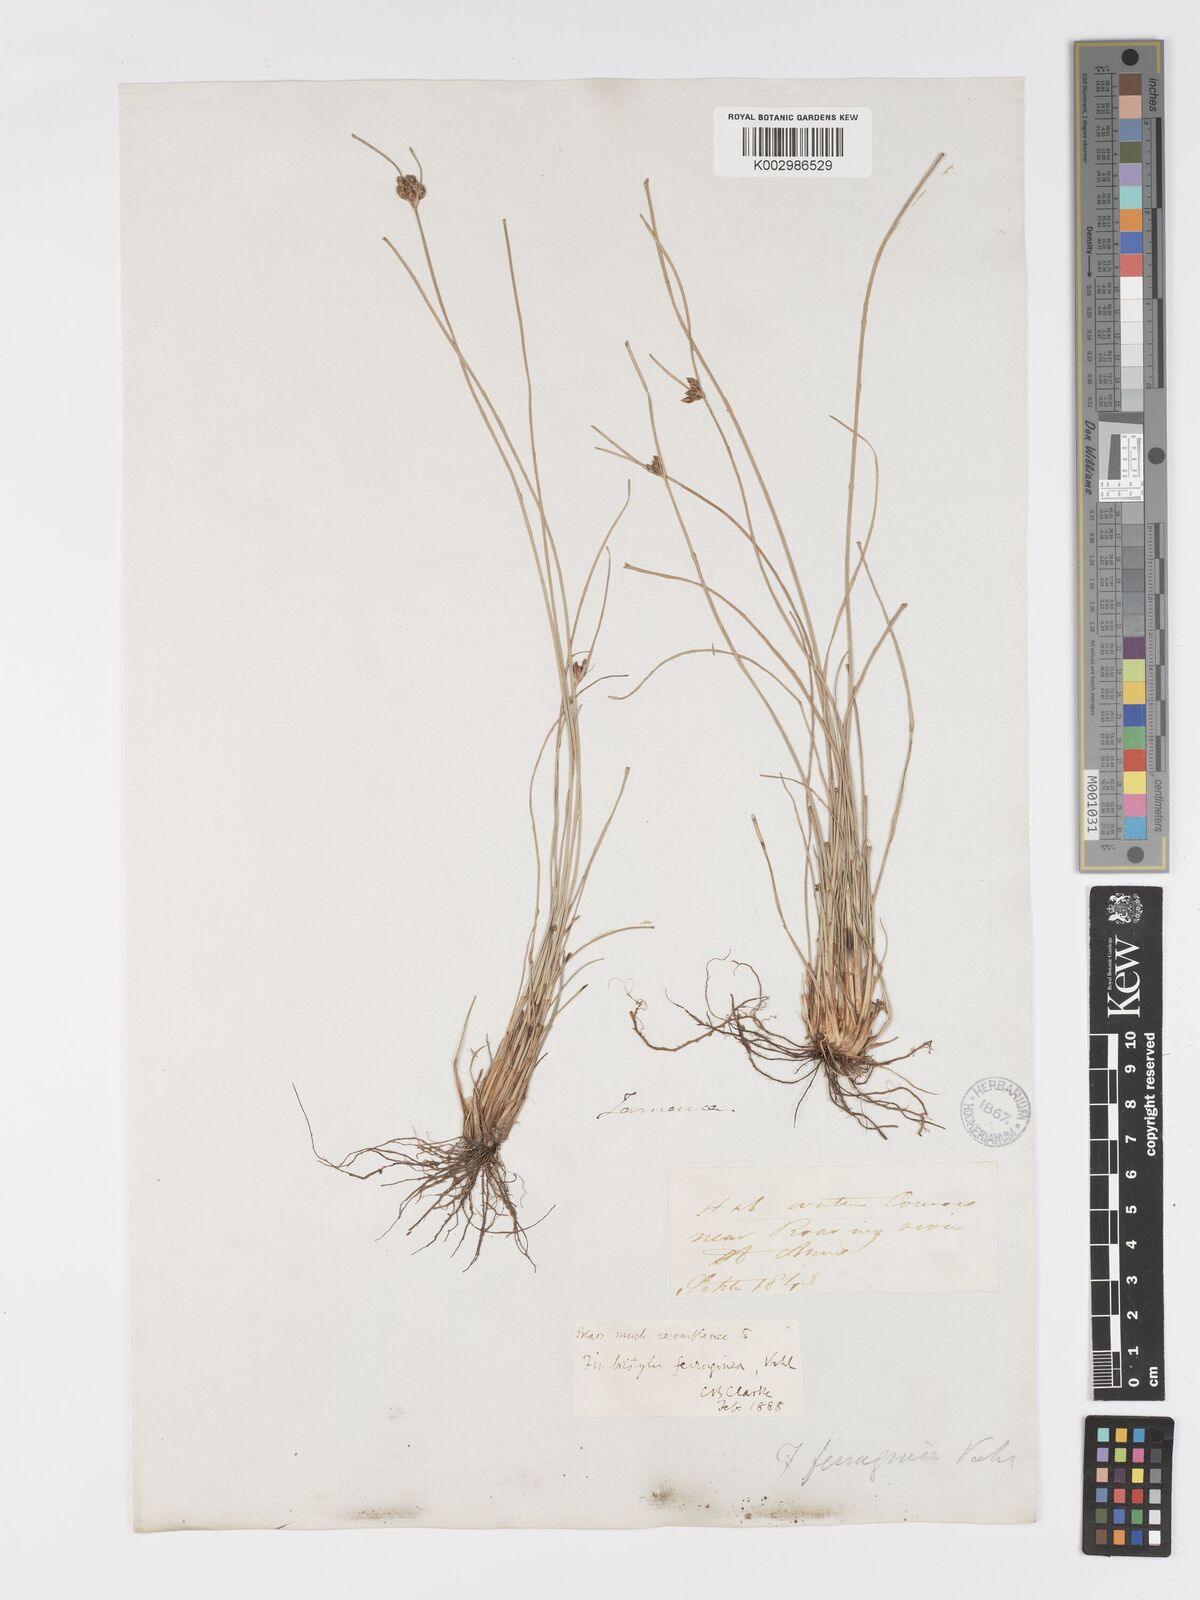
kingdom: Plantae
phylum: Tracheophyta
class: Liliopsida
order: Poales
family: Cyperaceae
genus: Fimbristylis
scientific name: Fimbristylis ferruginea
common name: West indian fimbry
